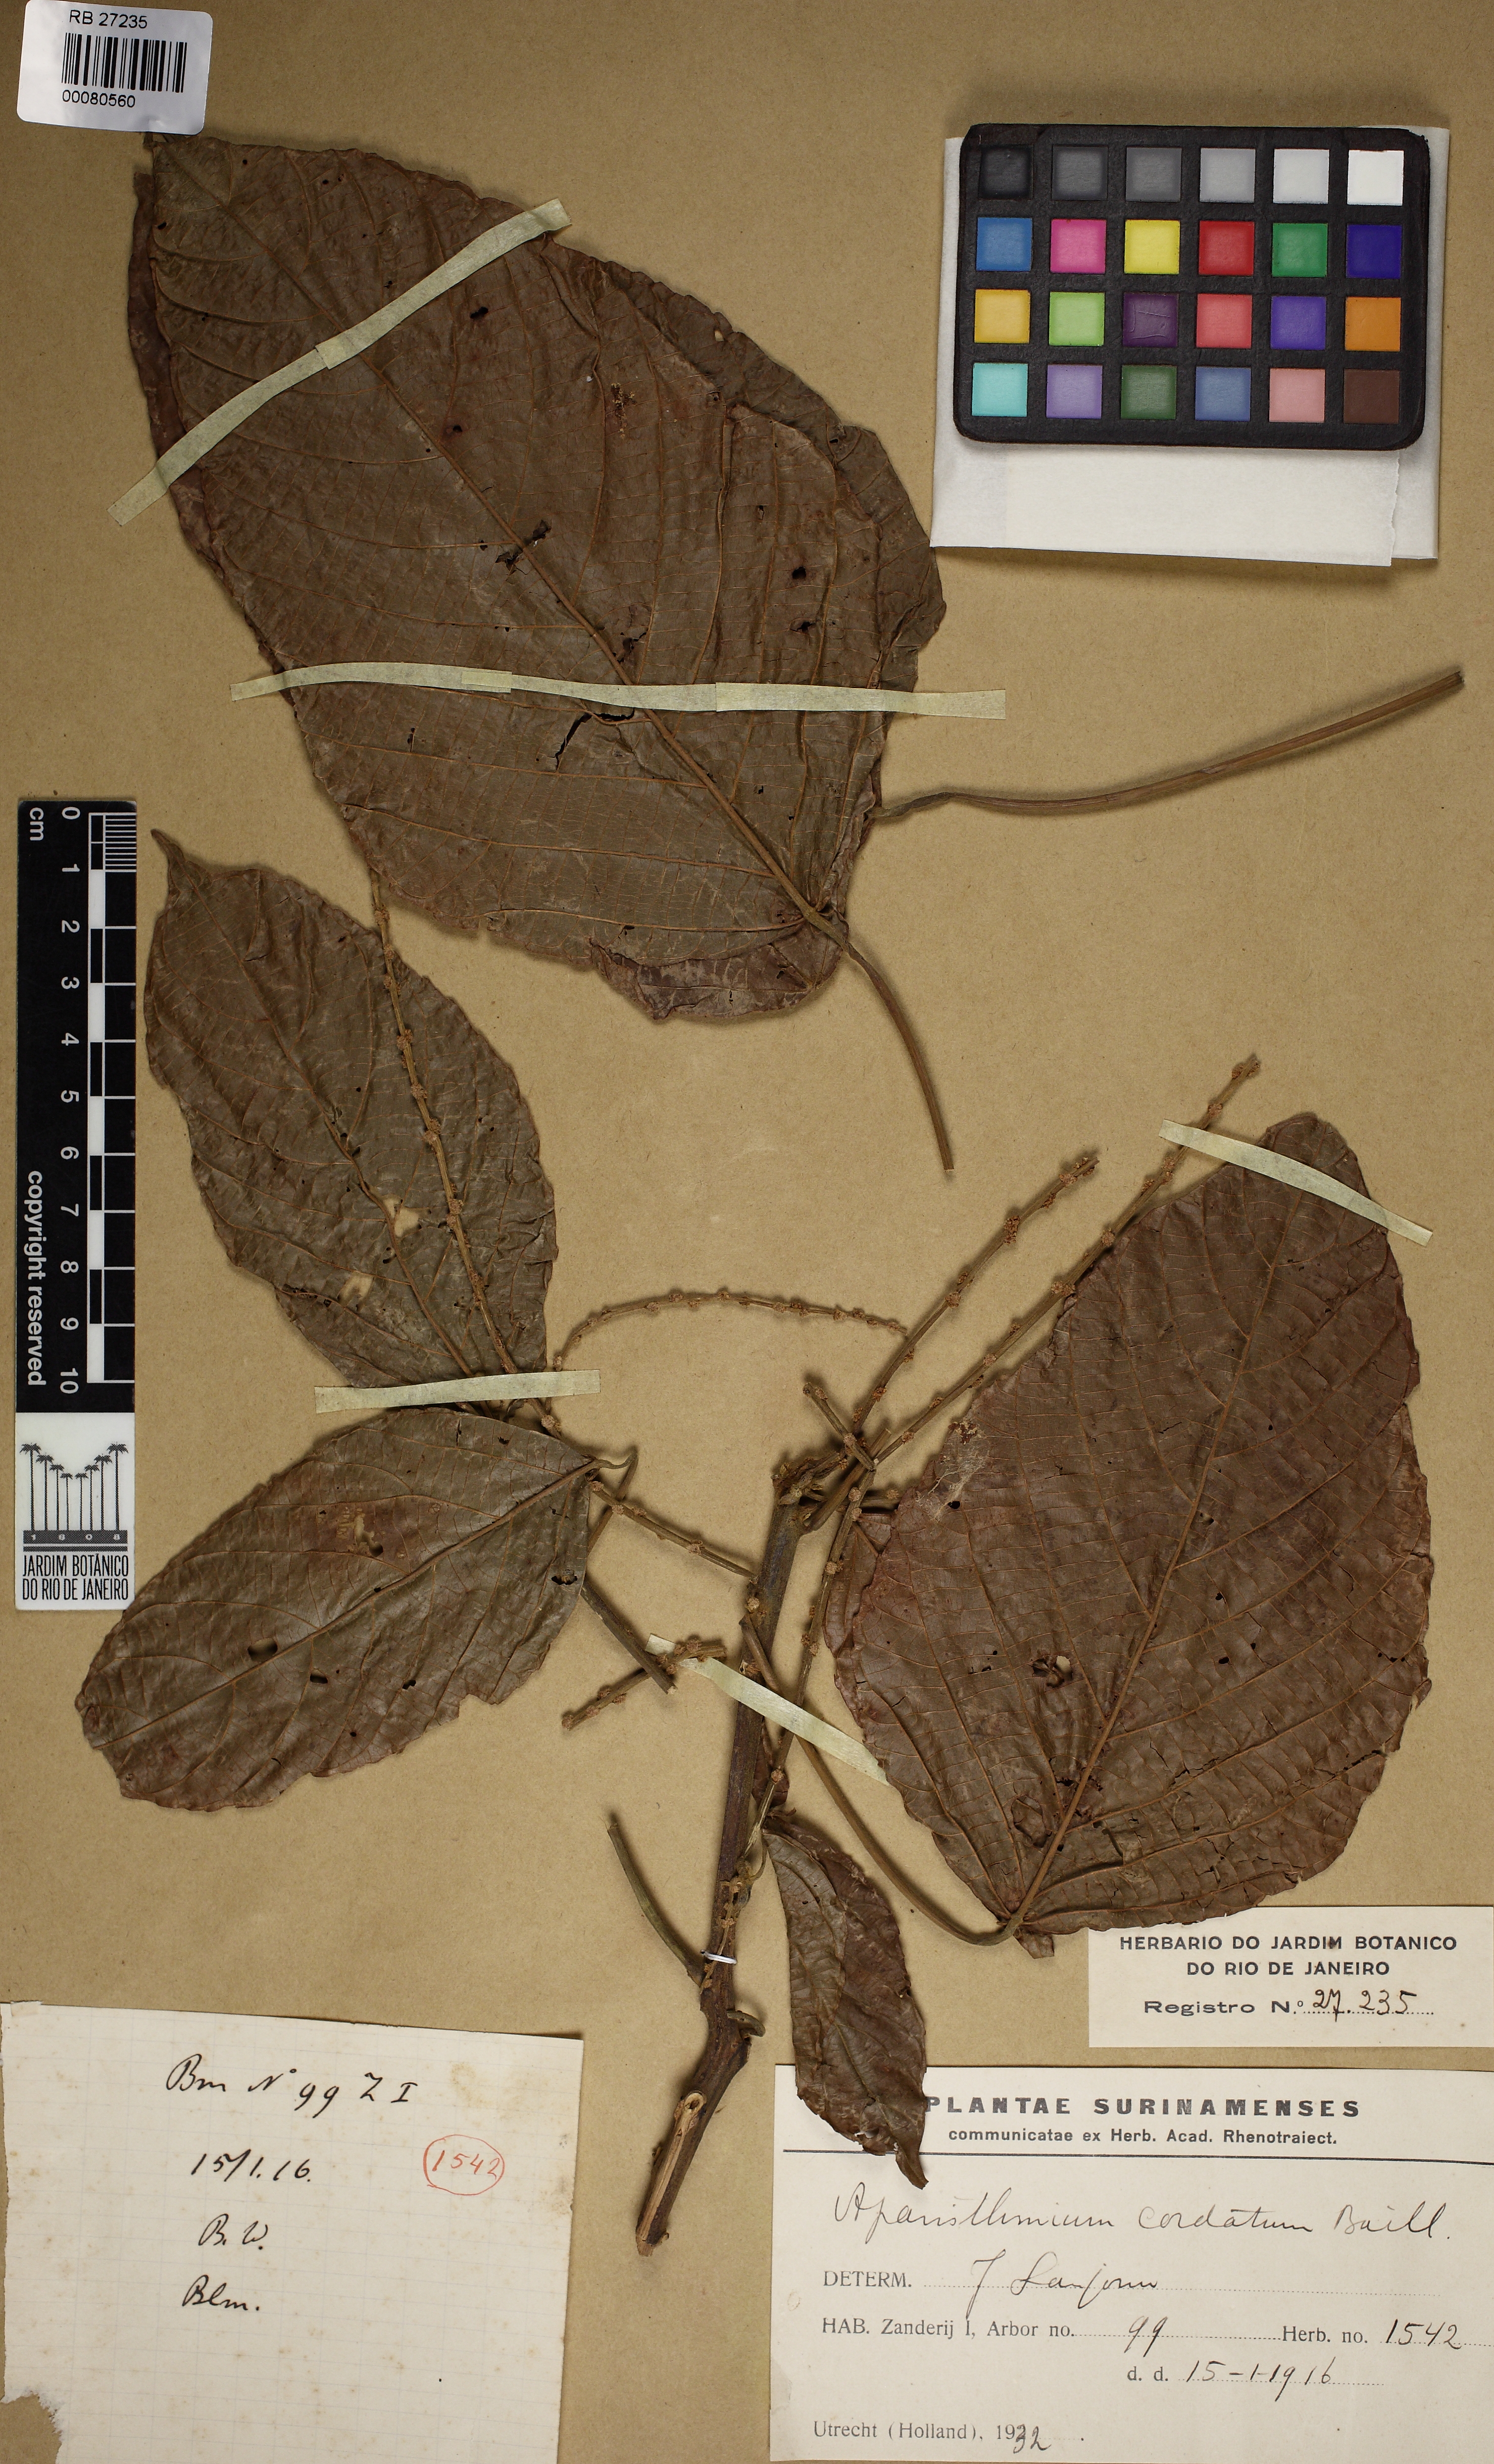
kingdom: Plantae
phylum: Tracheophyta
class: Magnoliopsida
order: Malpighiales
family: Euphorbiaceae
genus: Aparisthmium
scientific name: Aparisthmium cordatum
